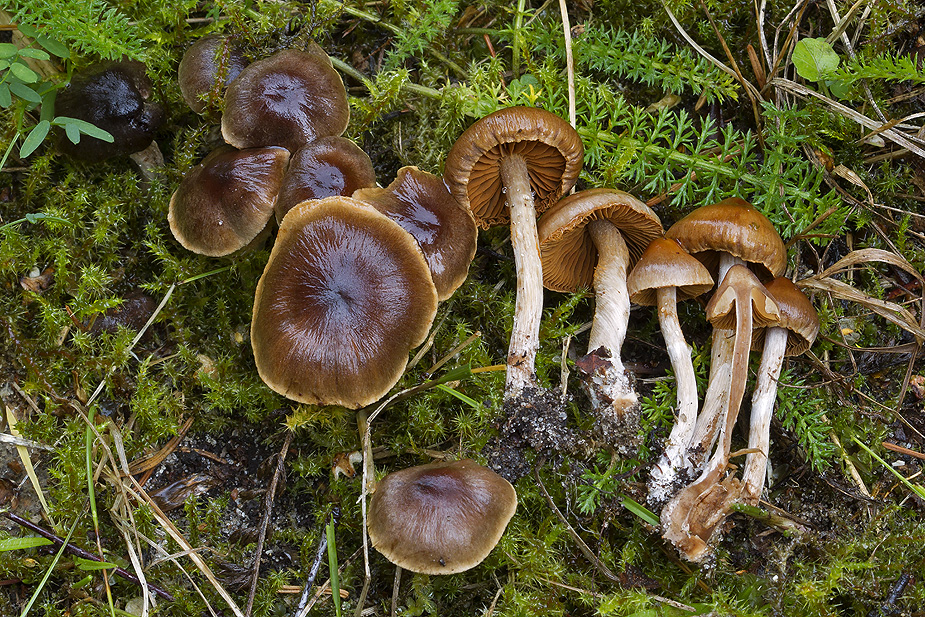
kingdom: Fungi
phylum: Basidiomycota
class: Agaricomycetes
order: Agaricales
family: Cortinariaceae
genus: Cortinarius
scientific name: Cortinarius castaneus
